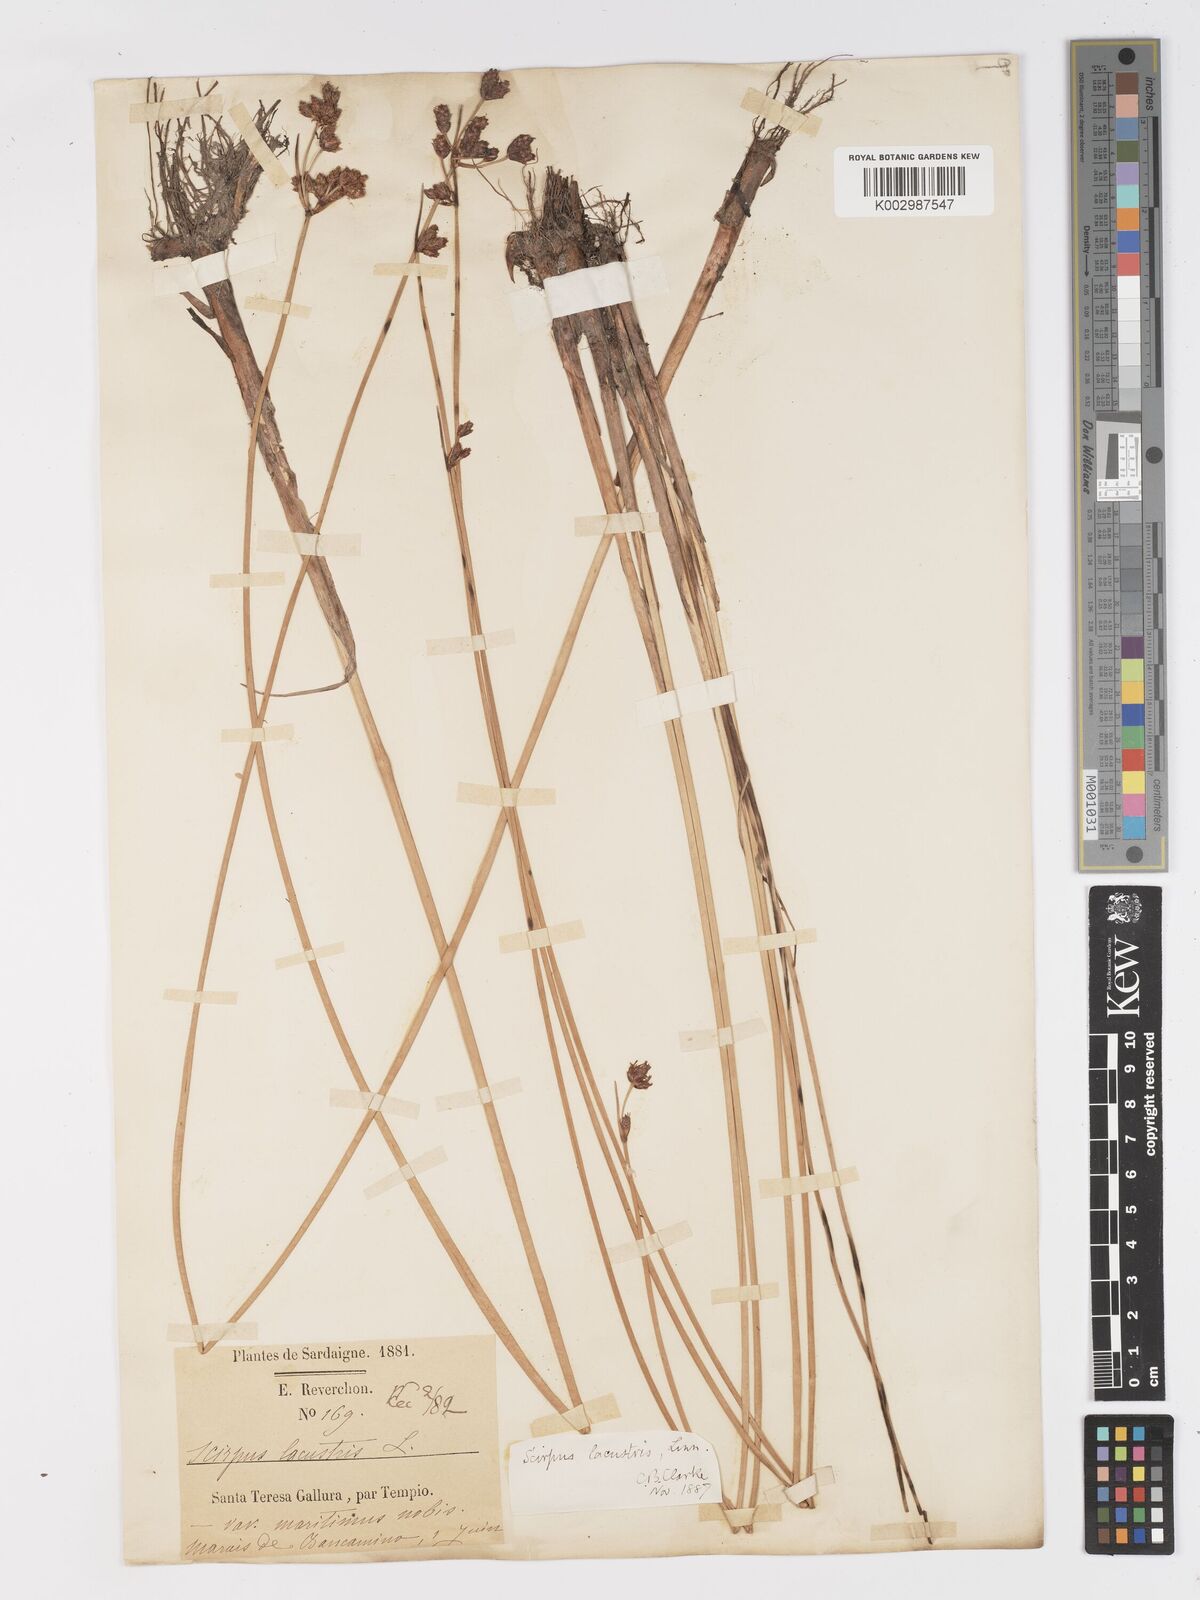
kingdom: Plantae
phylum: Tracheophyta
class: Liliopsida
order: Poales
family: Cyperaceae
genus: Schoenoplectus
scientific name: Schoenoplectus lacustris
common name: Common club-rush
